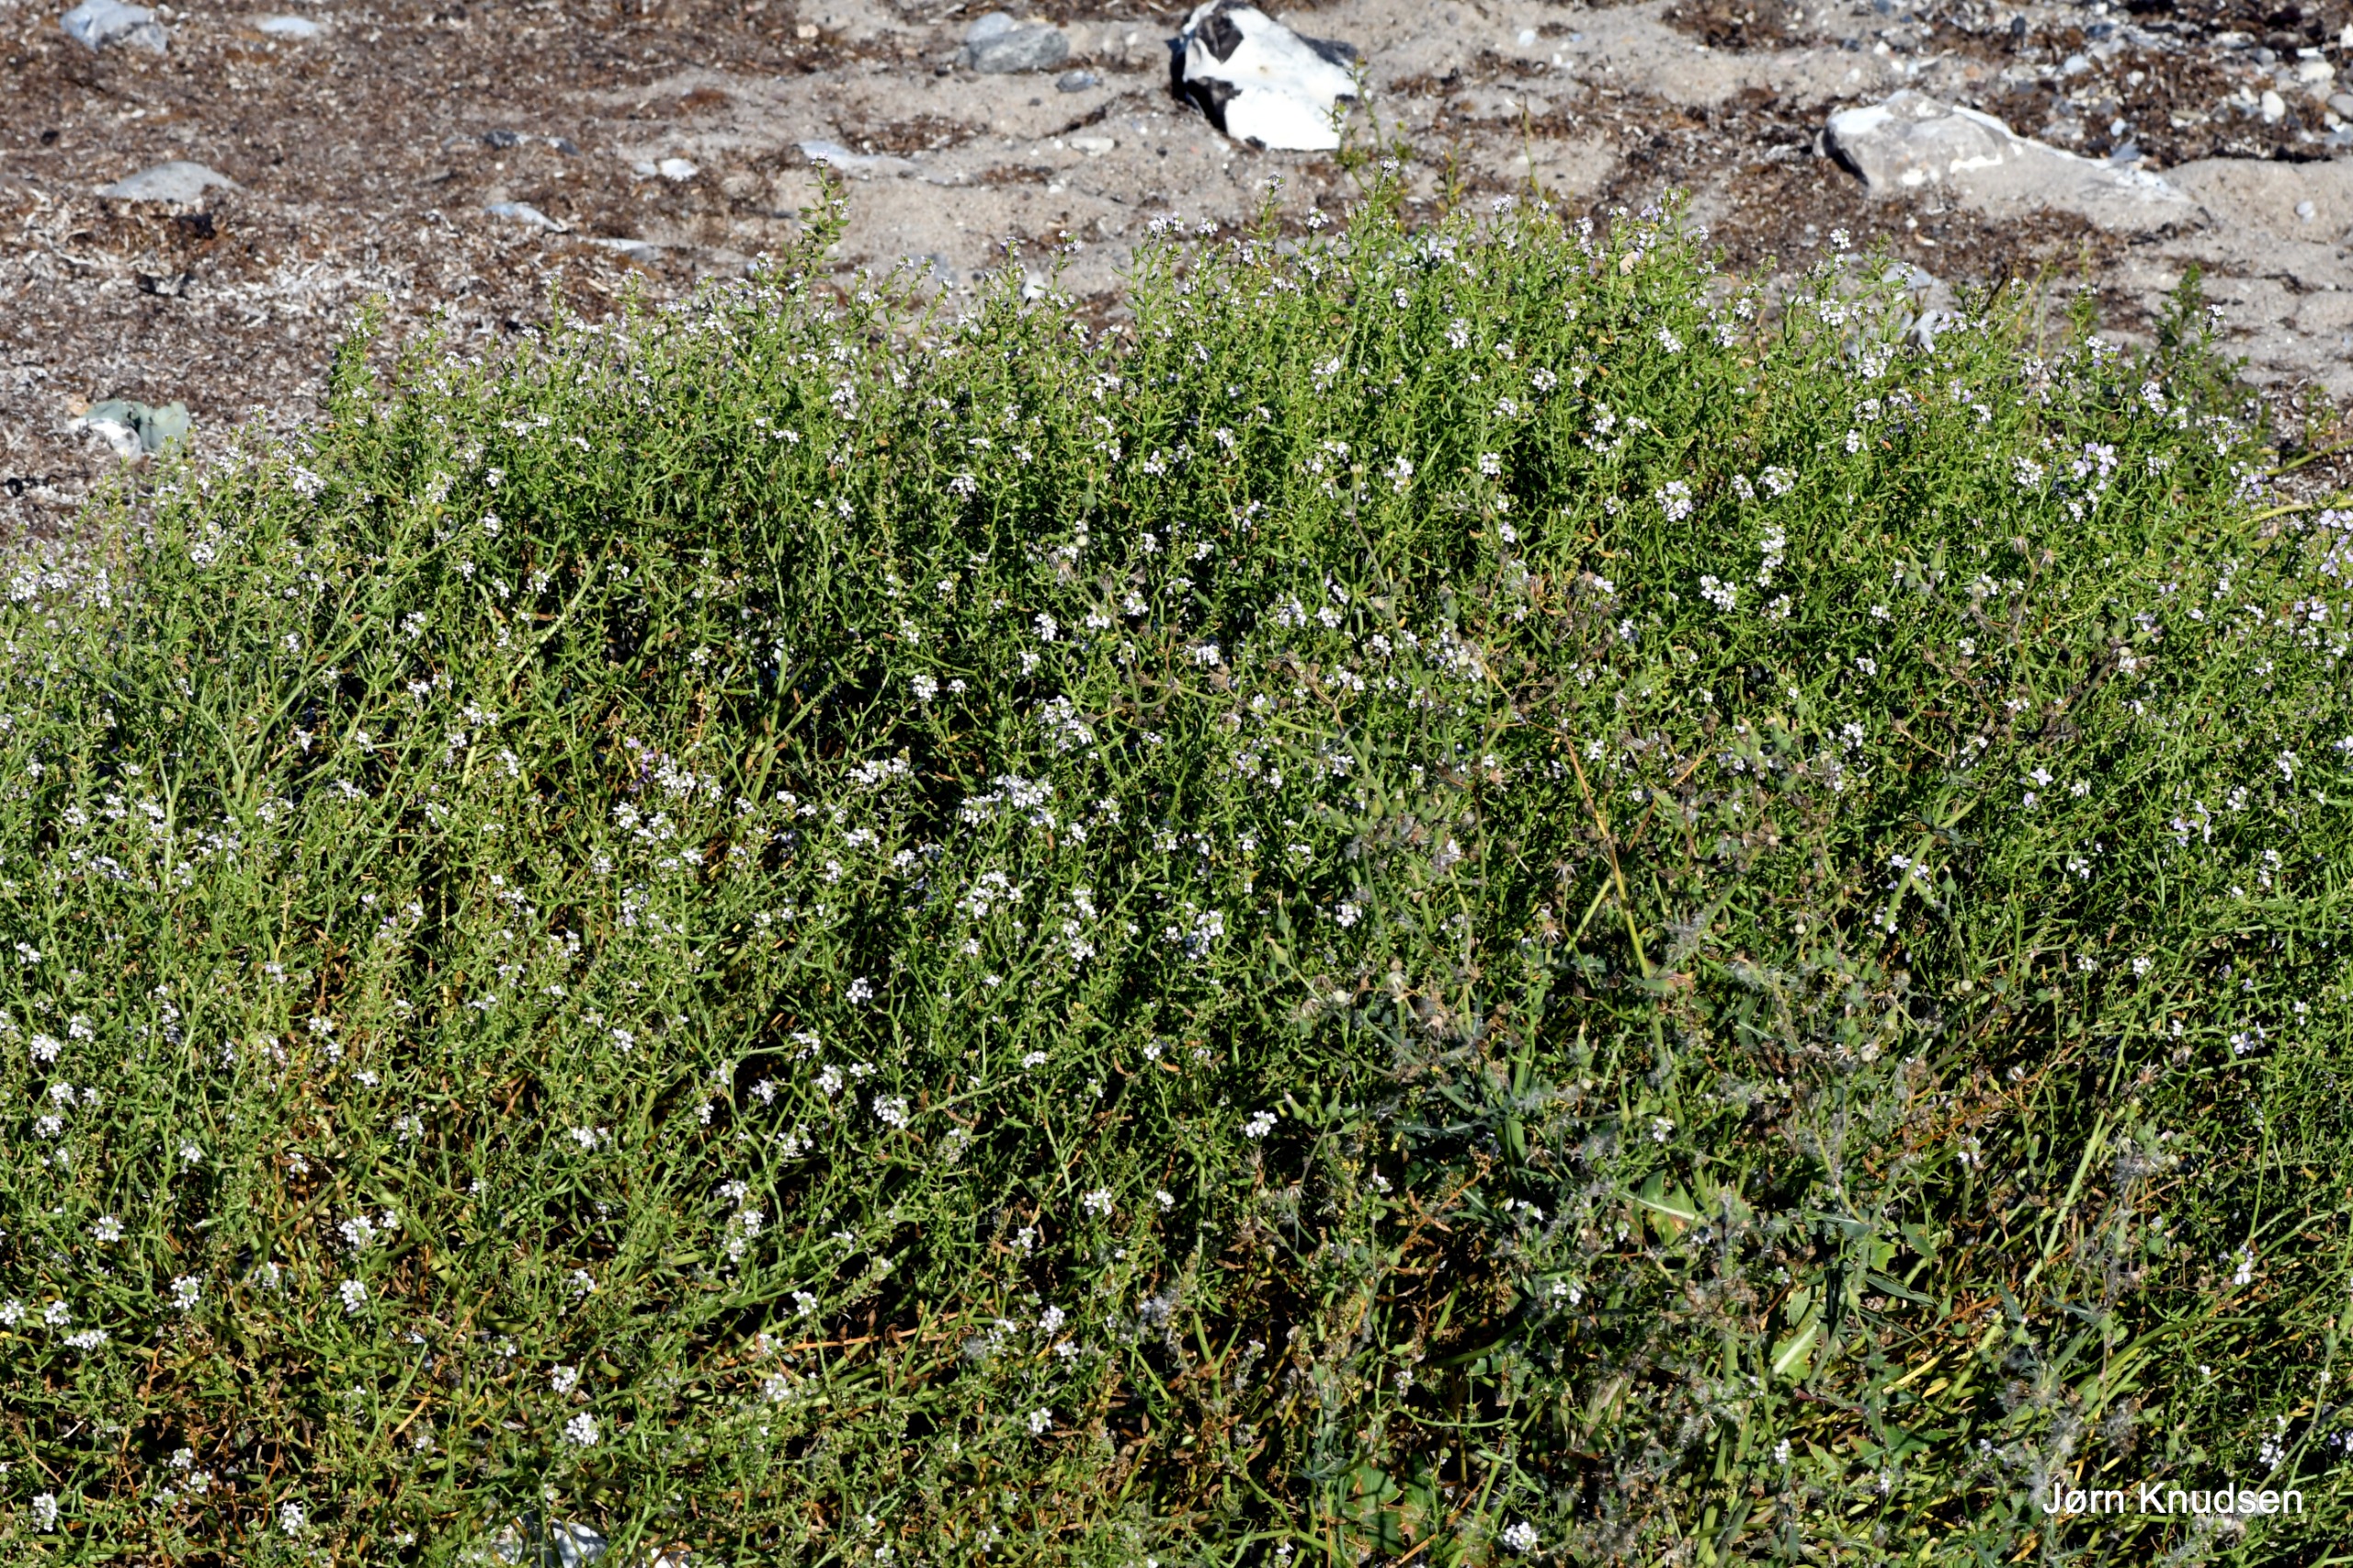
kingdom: Plantae
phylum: Tracheophyta
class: Magnoliopsida
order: Brassicales
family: Brassicaceae
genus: Cakile
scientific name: Cakile maritima
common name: Strandsennep
